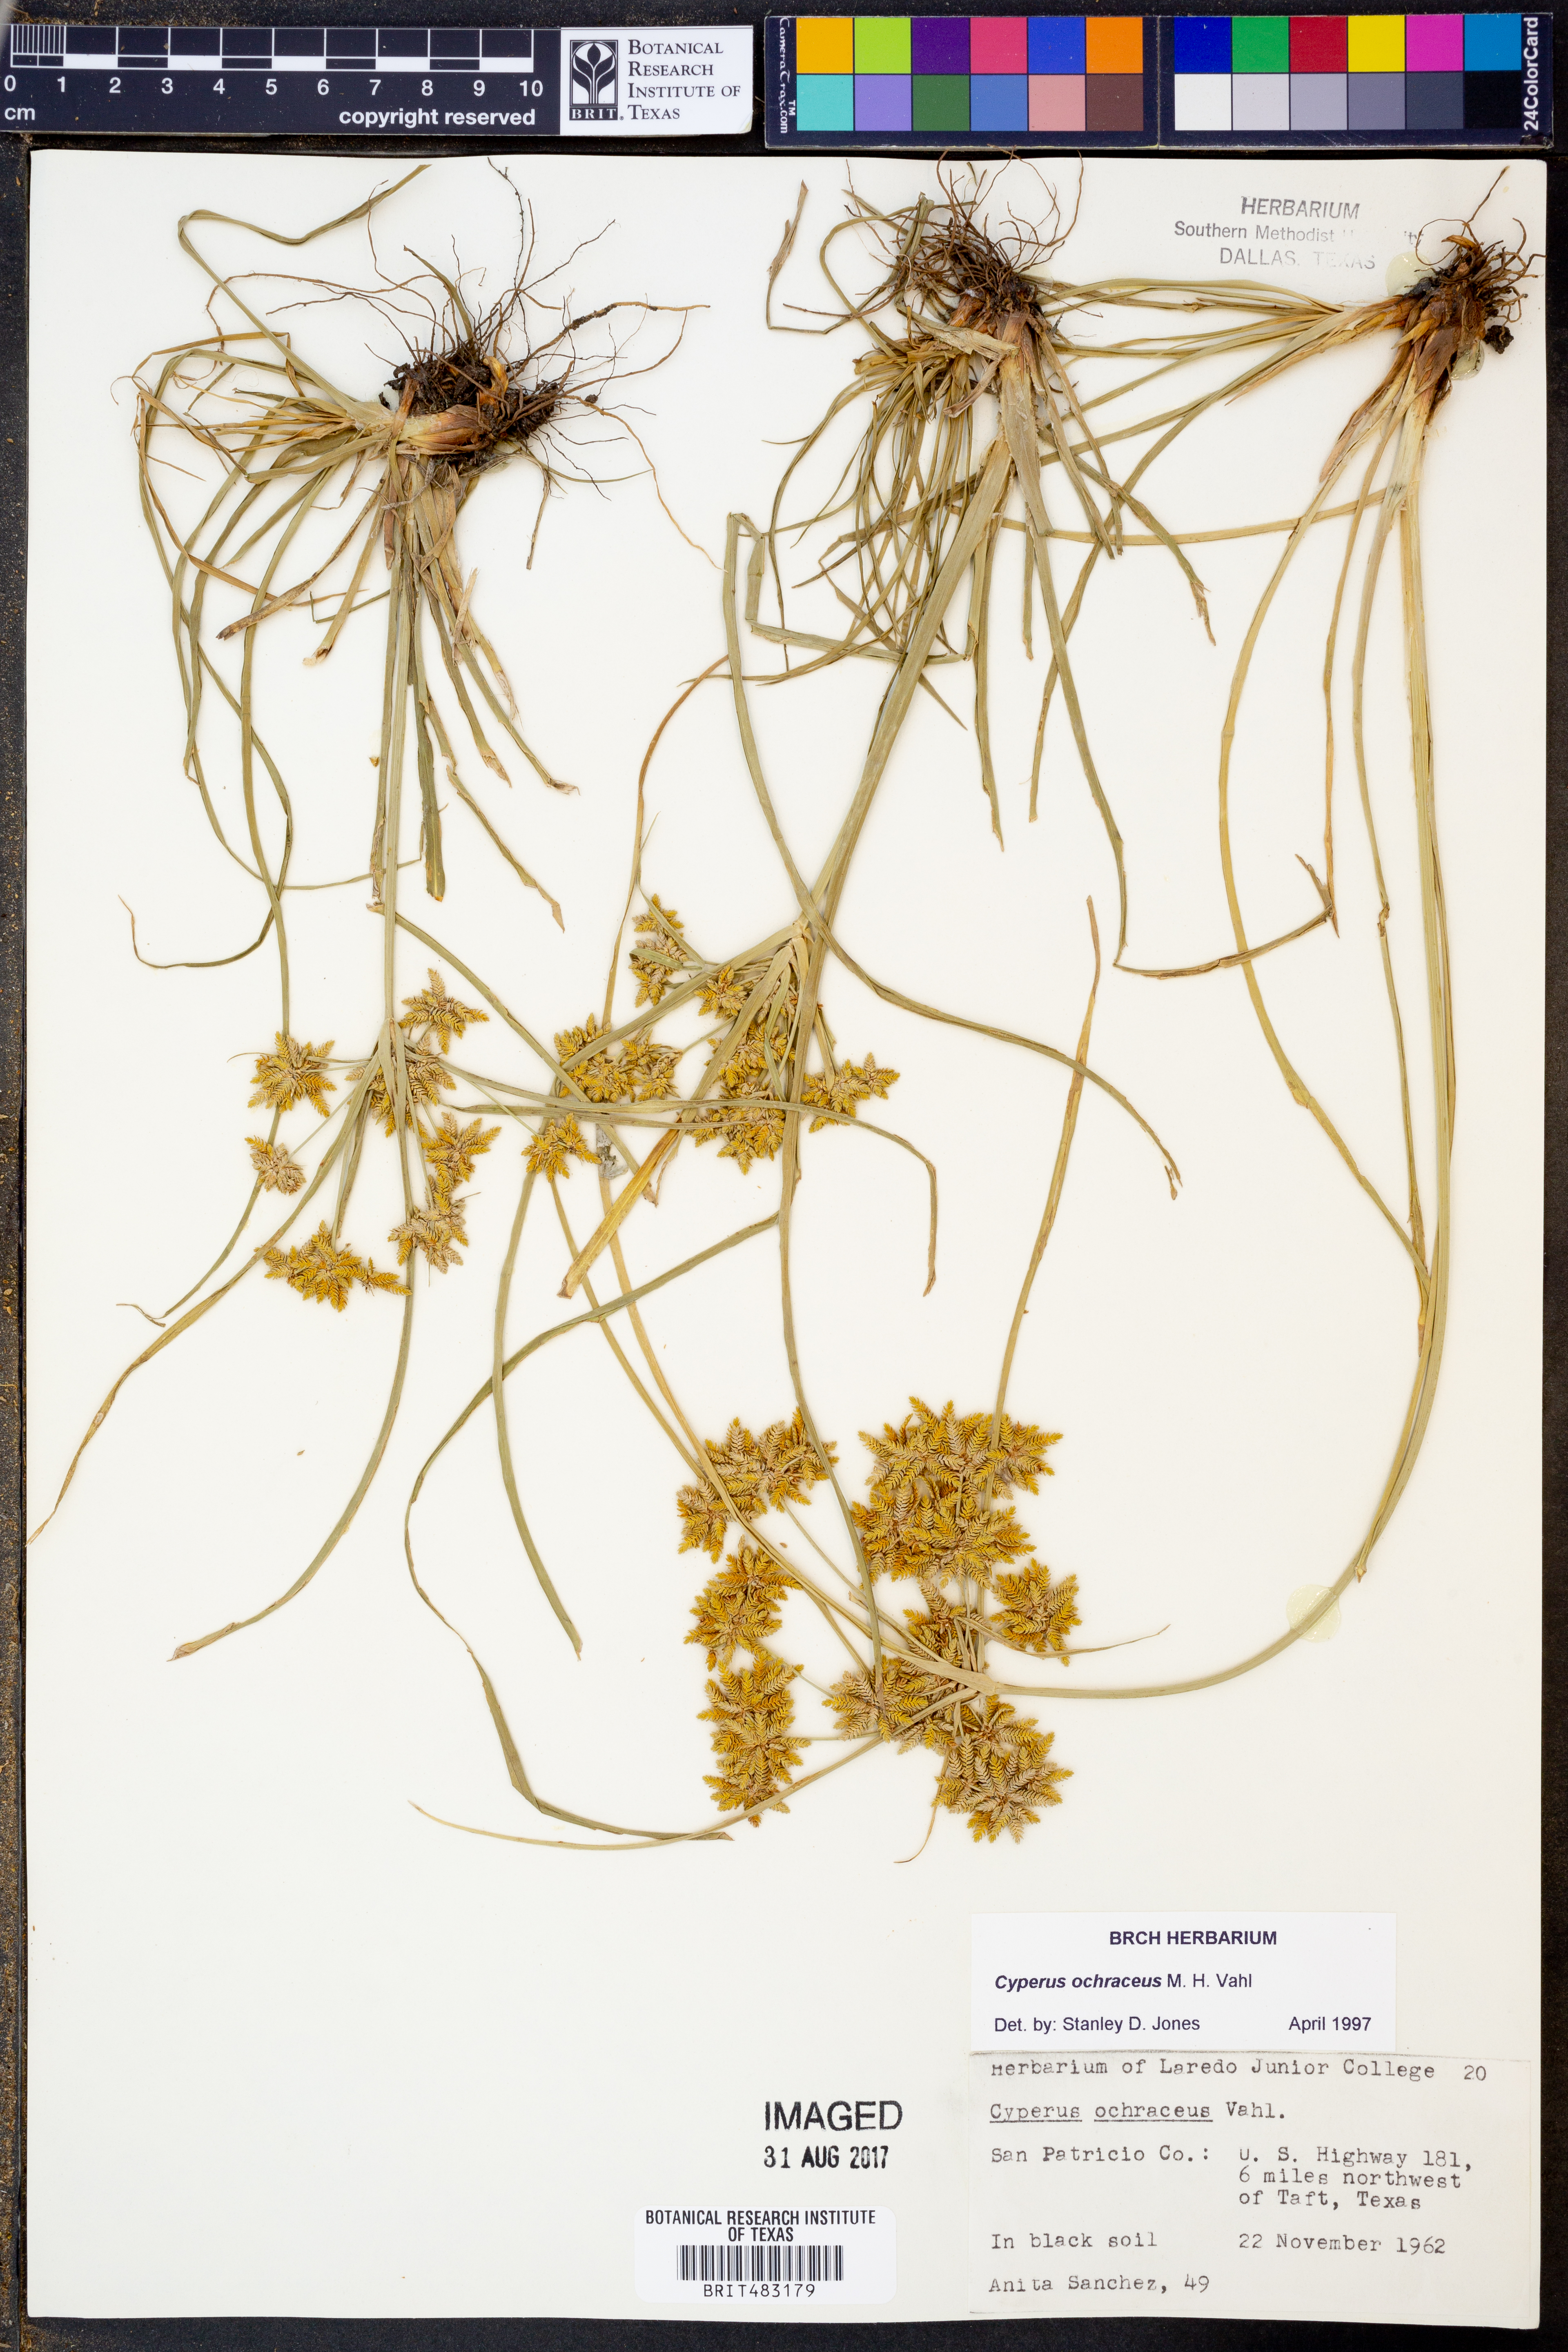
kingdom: Plantae
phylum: Tracheophyta
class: Liliopsida
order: Poales
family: Cyperaceae
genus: Cyperus
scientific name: Cyperus ochraceus
